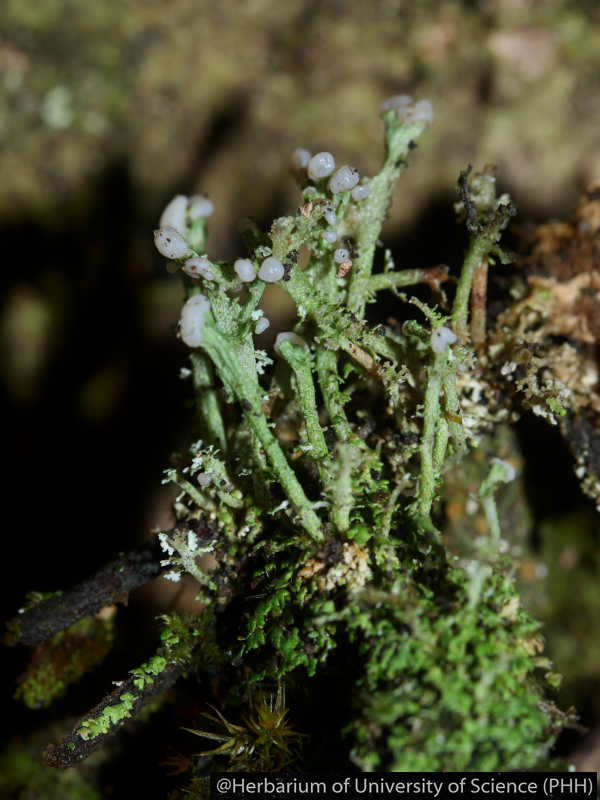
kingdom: Fungi
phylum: Ascomycota
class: Lecanoromycetes
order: Lecanorales
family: Cladoniaceae
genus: Cladonia
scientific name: Cladonia
